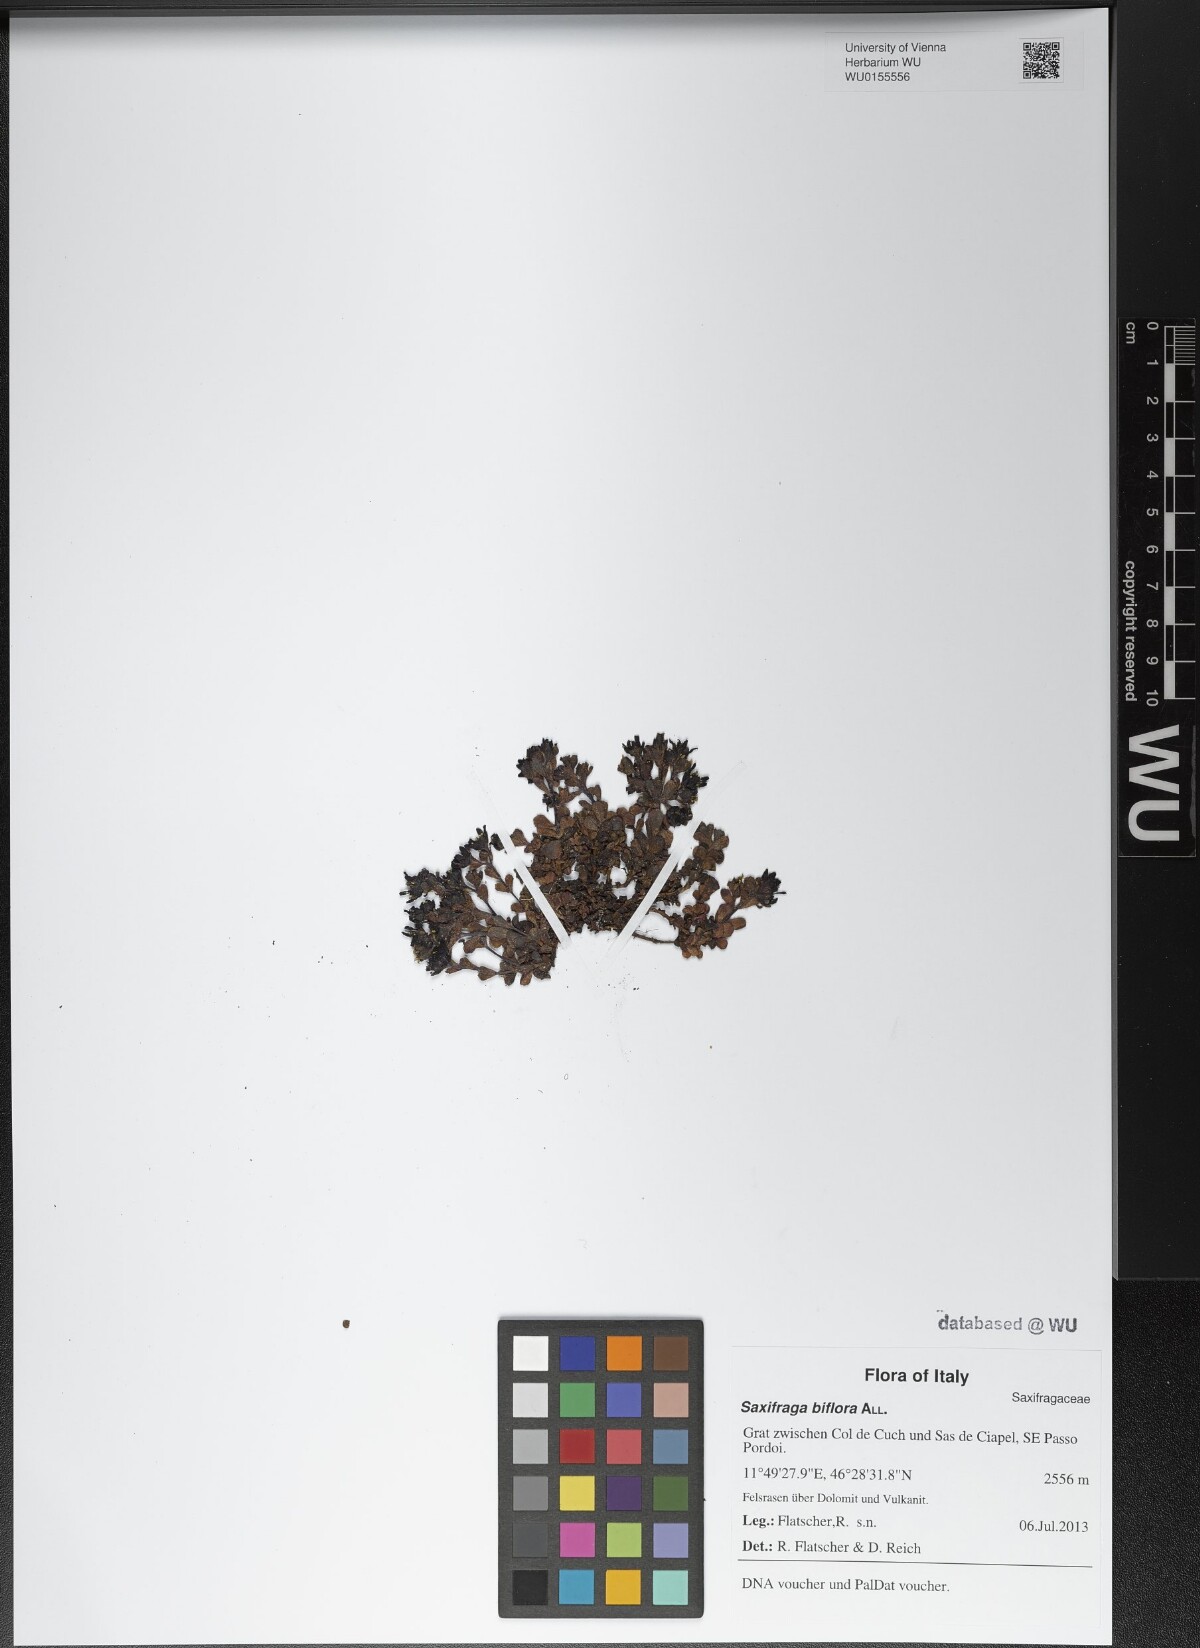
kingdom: Plantae
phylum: Tracheophyta
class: Magnoliopsida
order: Saxifragales
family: Saxifragaceae
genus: Saxifraga
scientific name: Saxifraga biflora
